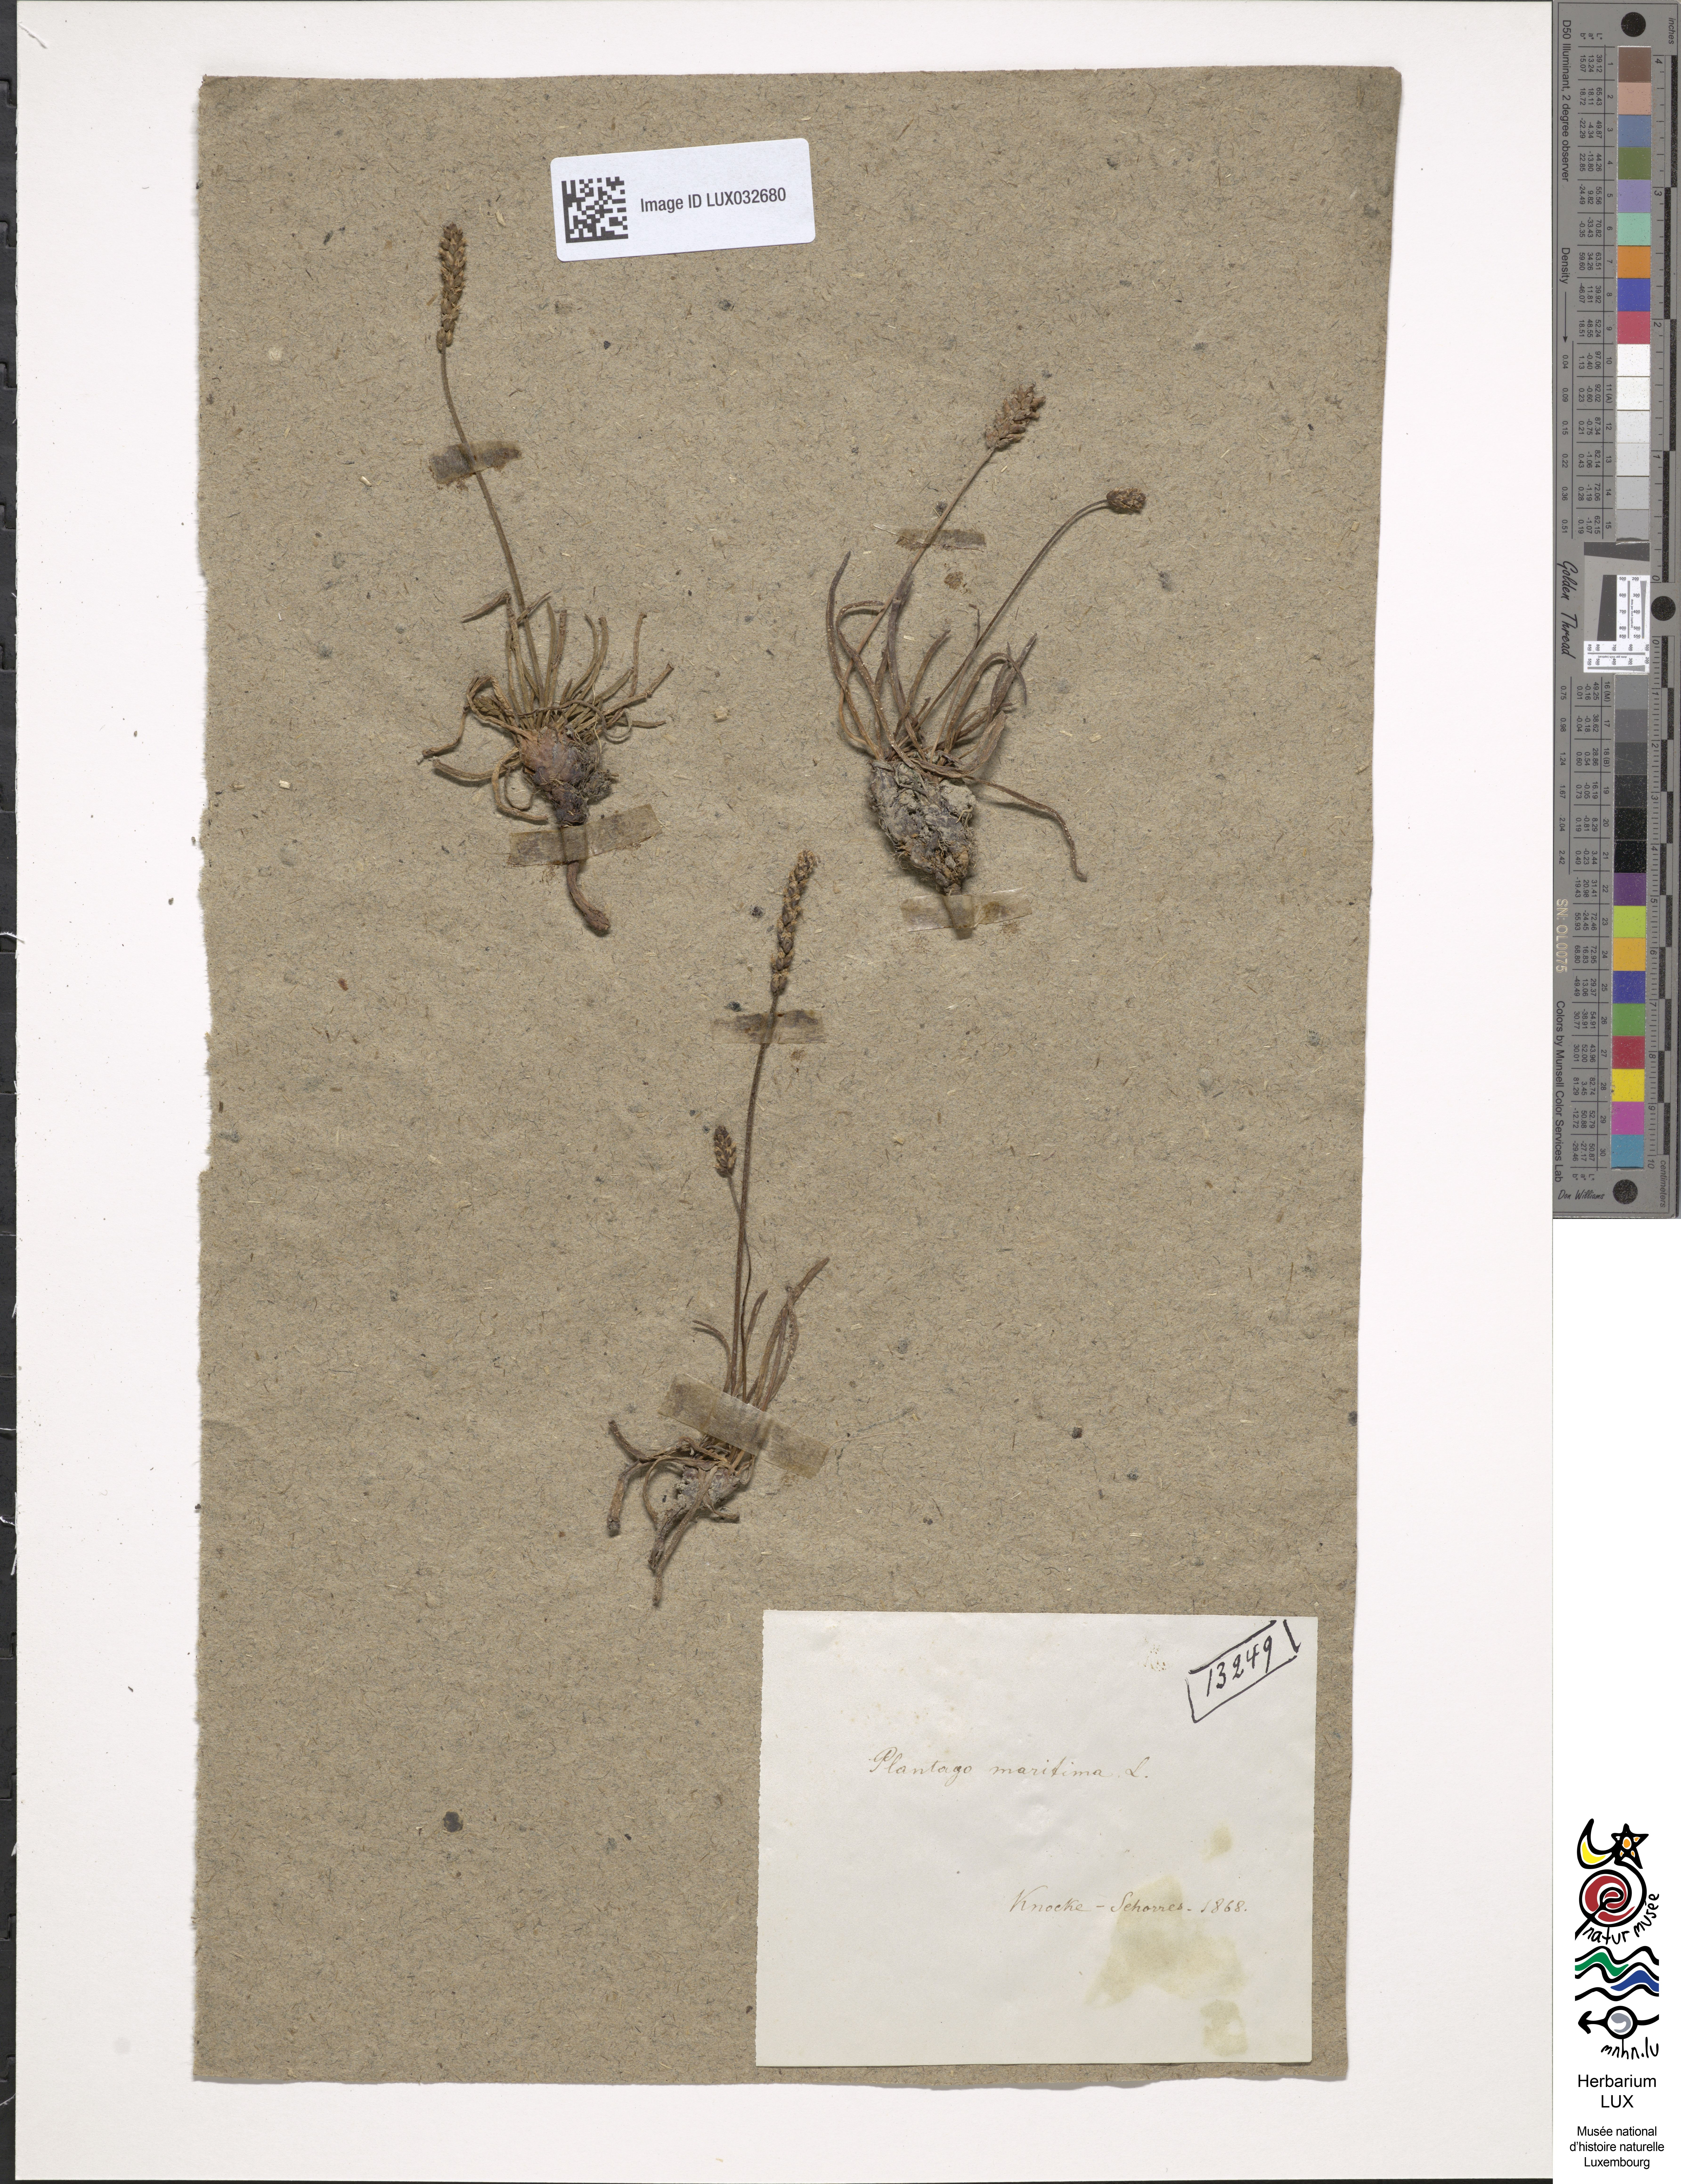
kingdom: Plantae
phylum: Tracheophyta
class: Magnoliopsida
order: Lamiales
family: Plantaginaceae
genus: Plantago
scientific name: Plantago maritima
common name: Sea plantain
